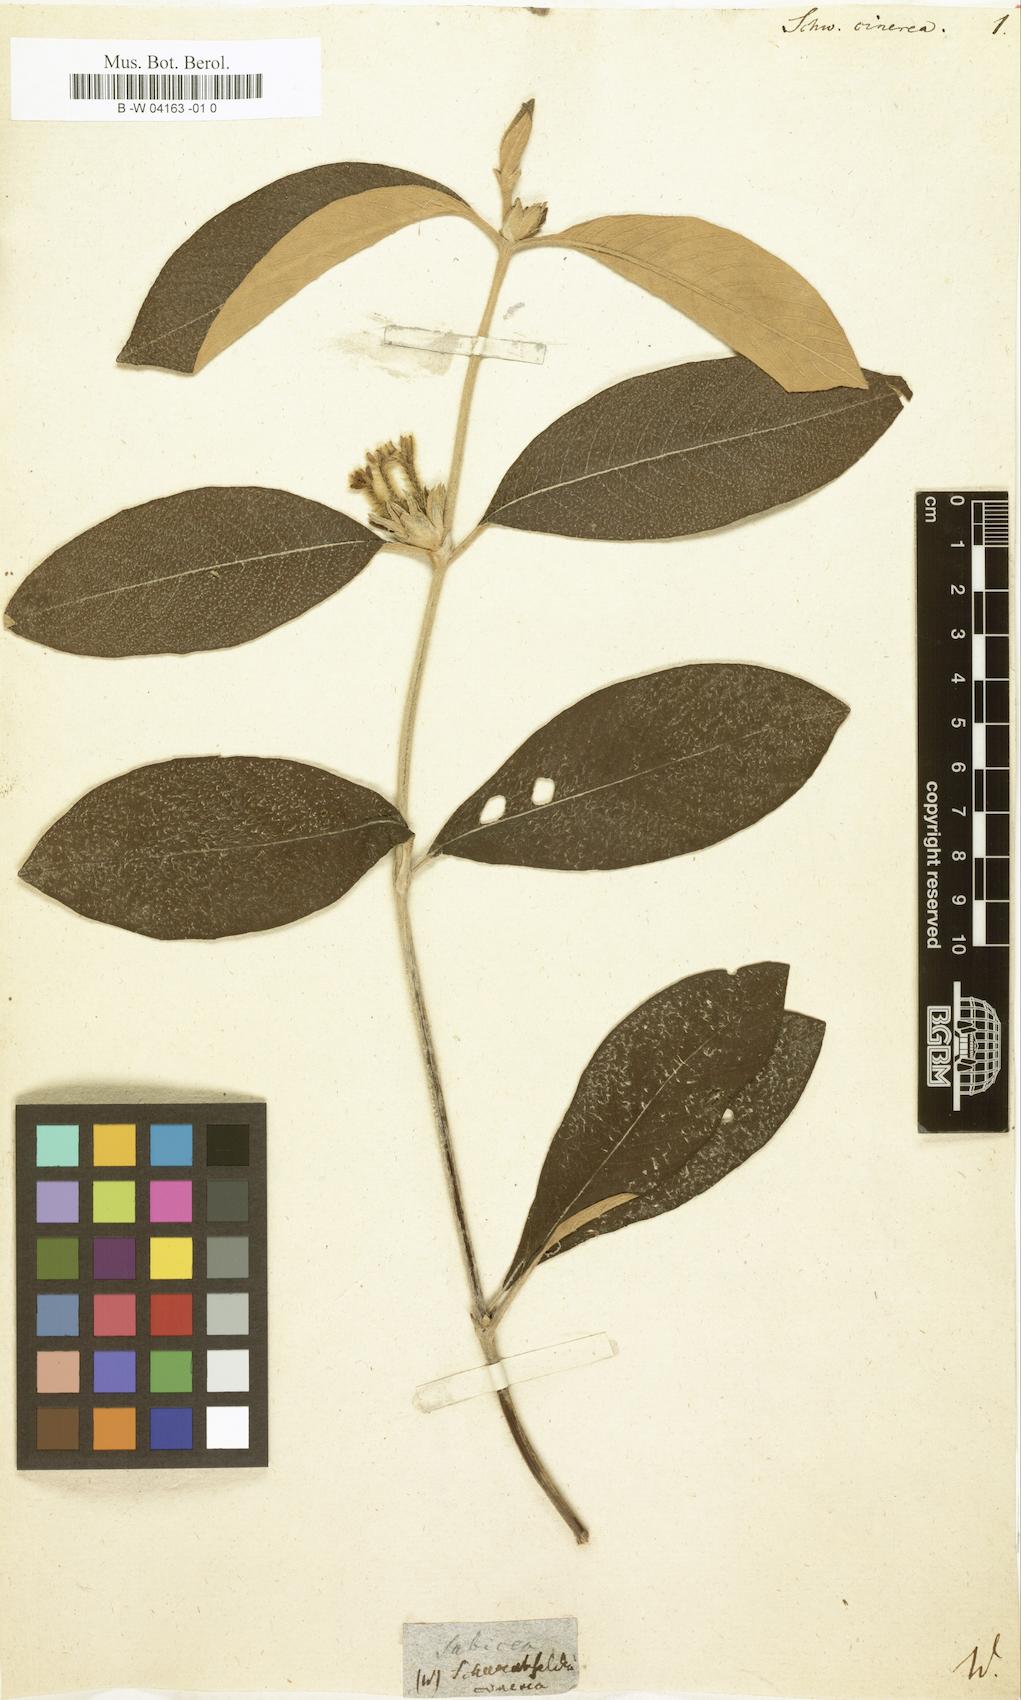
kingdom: Plantae
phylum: Tracheophyta
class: Magnoliopsida
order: Gentianales
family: Rubiaceae
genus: Sabicea
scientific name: Sabicea cinerea
